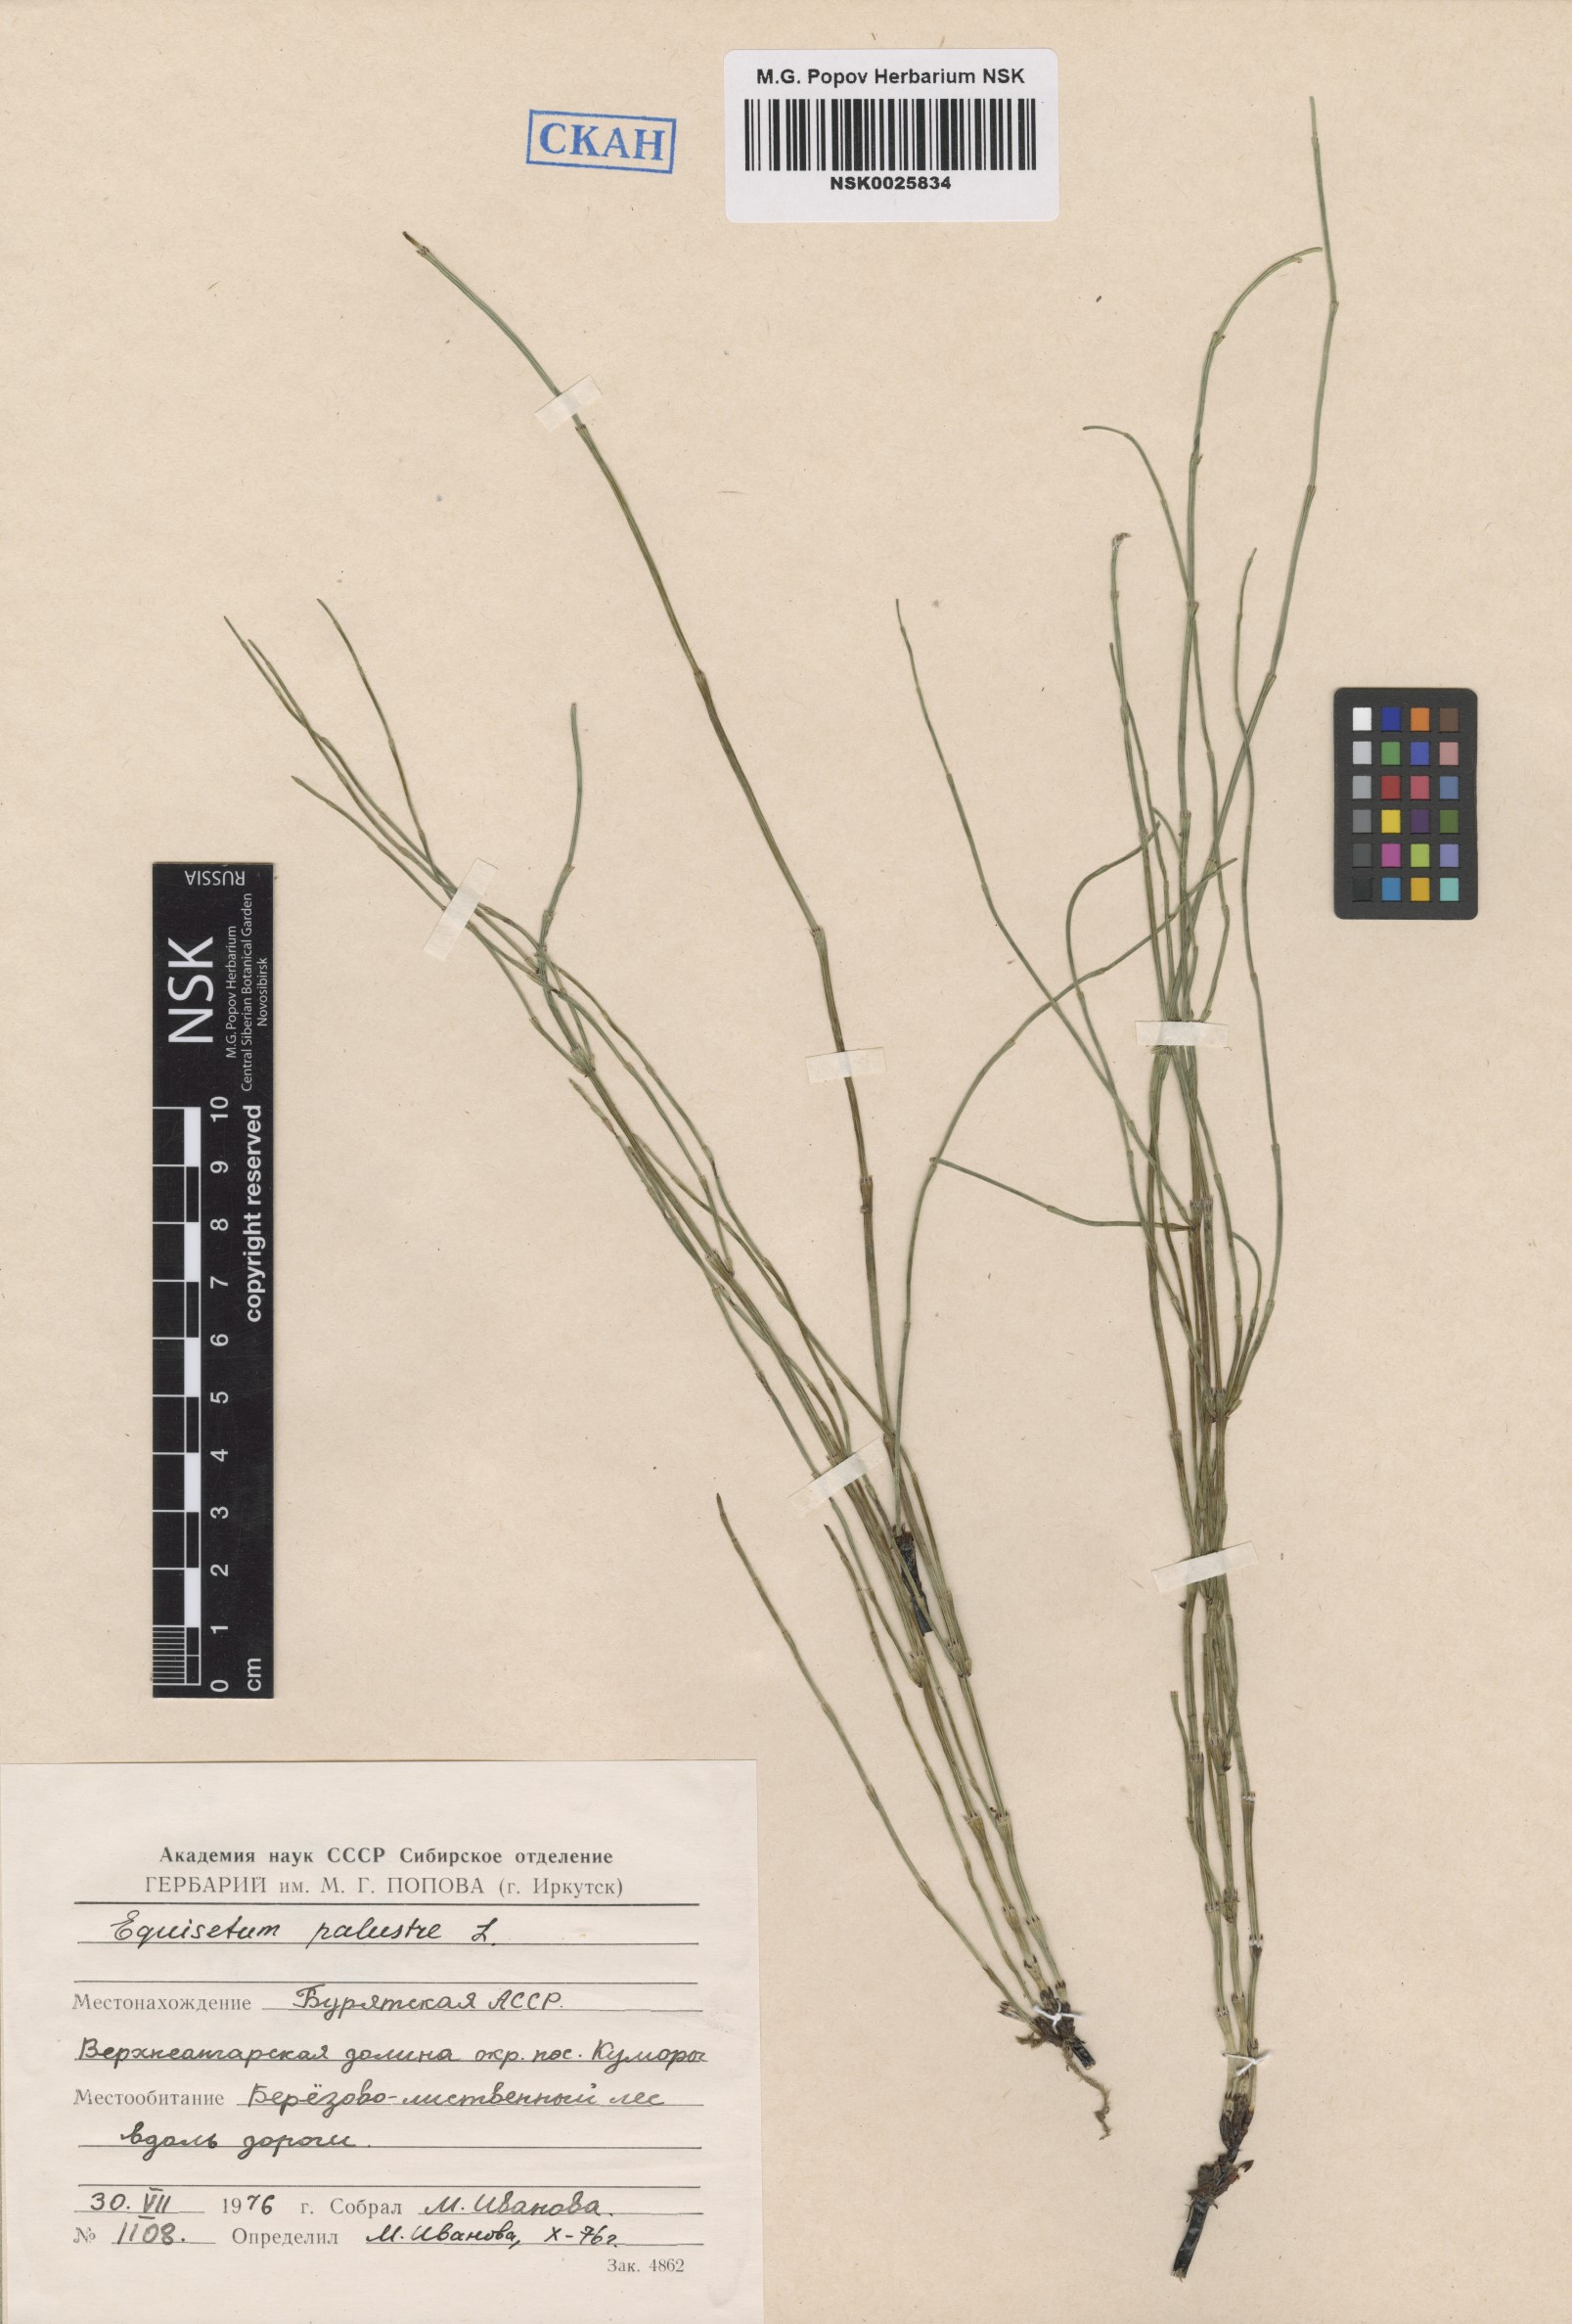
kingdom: Plantae
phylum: Tracheophyta
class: Polypodiopsida
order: Equisetales
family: Equisetaceae
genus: Equisetum
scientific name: Equisetum palustre
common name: Marsh horsetail
